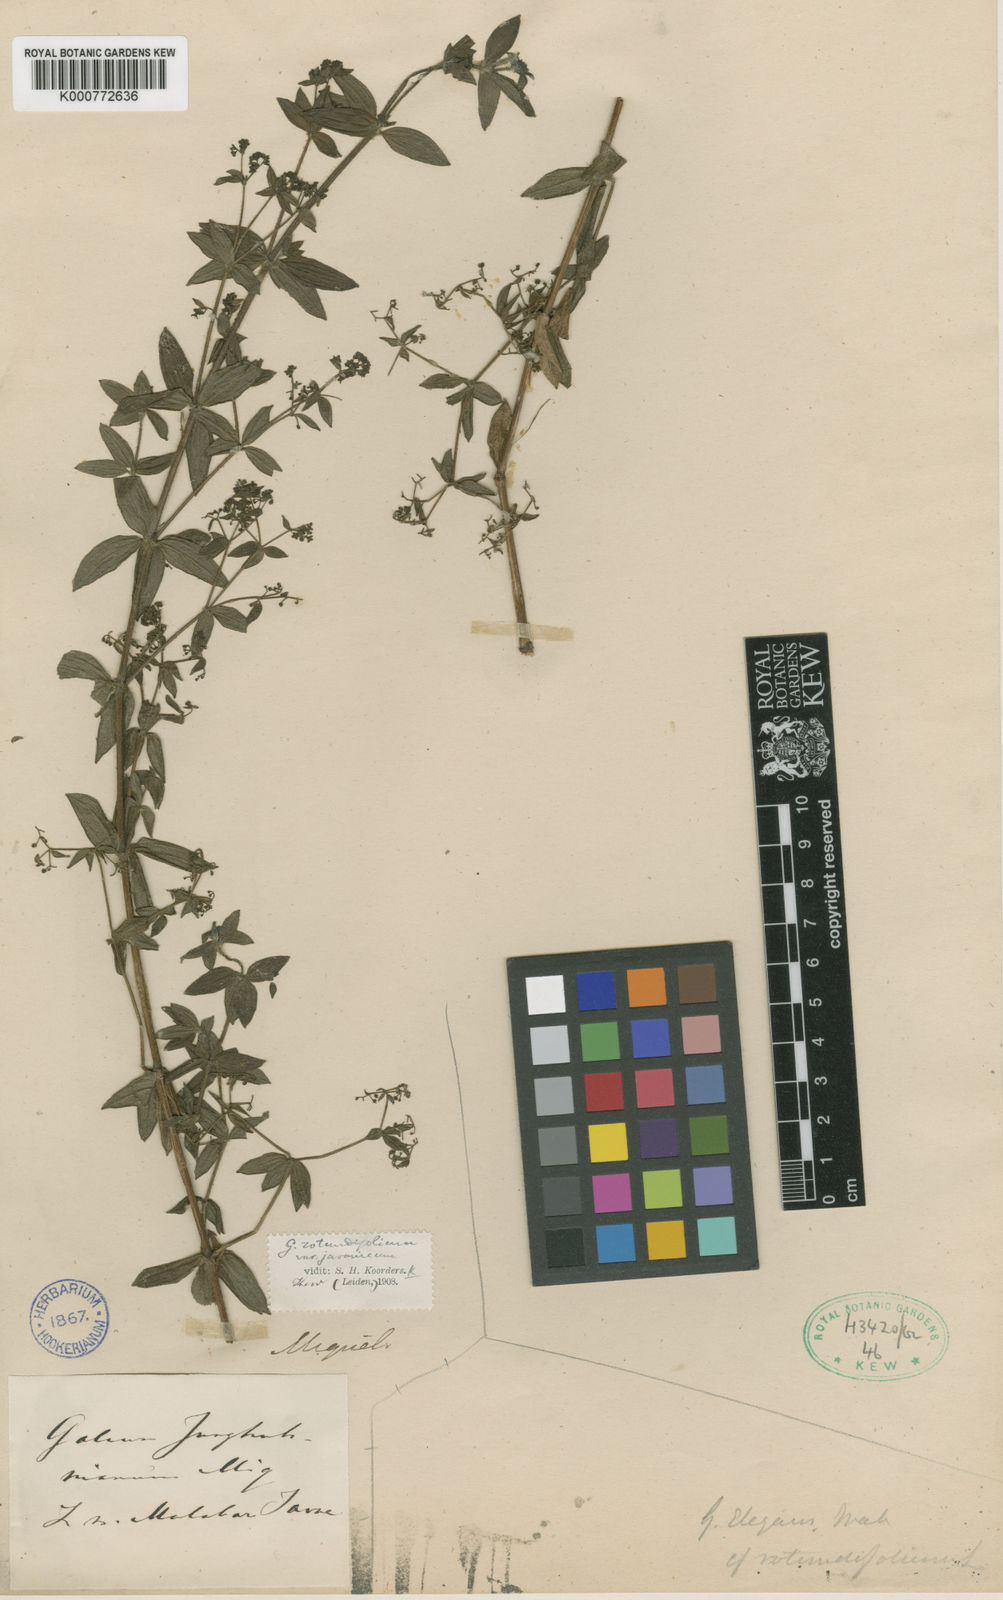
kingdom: Plantae
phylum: Tracheophyta
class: Magnoliopsida
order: Gentianales
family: Rubiaceae
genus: Galium
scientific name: Galium javanicum
